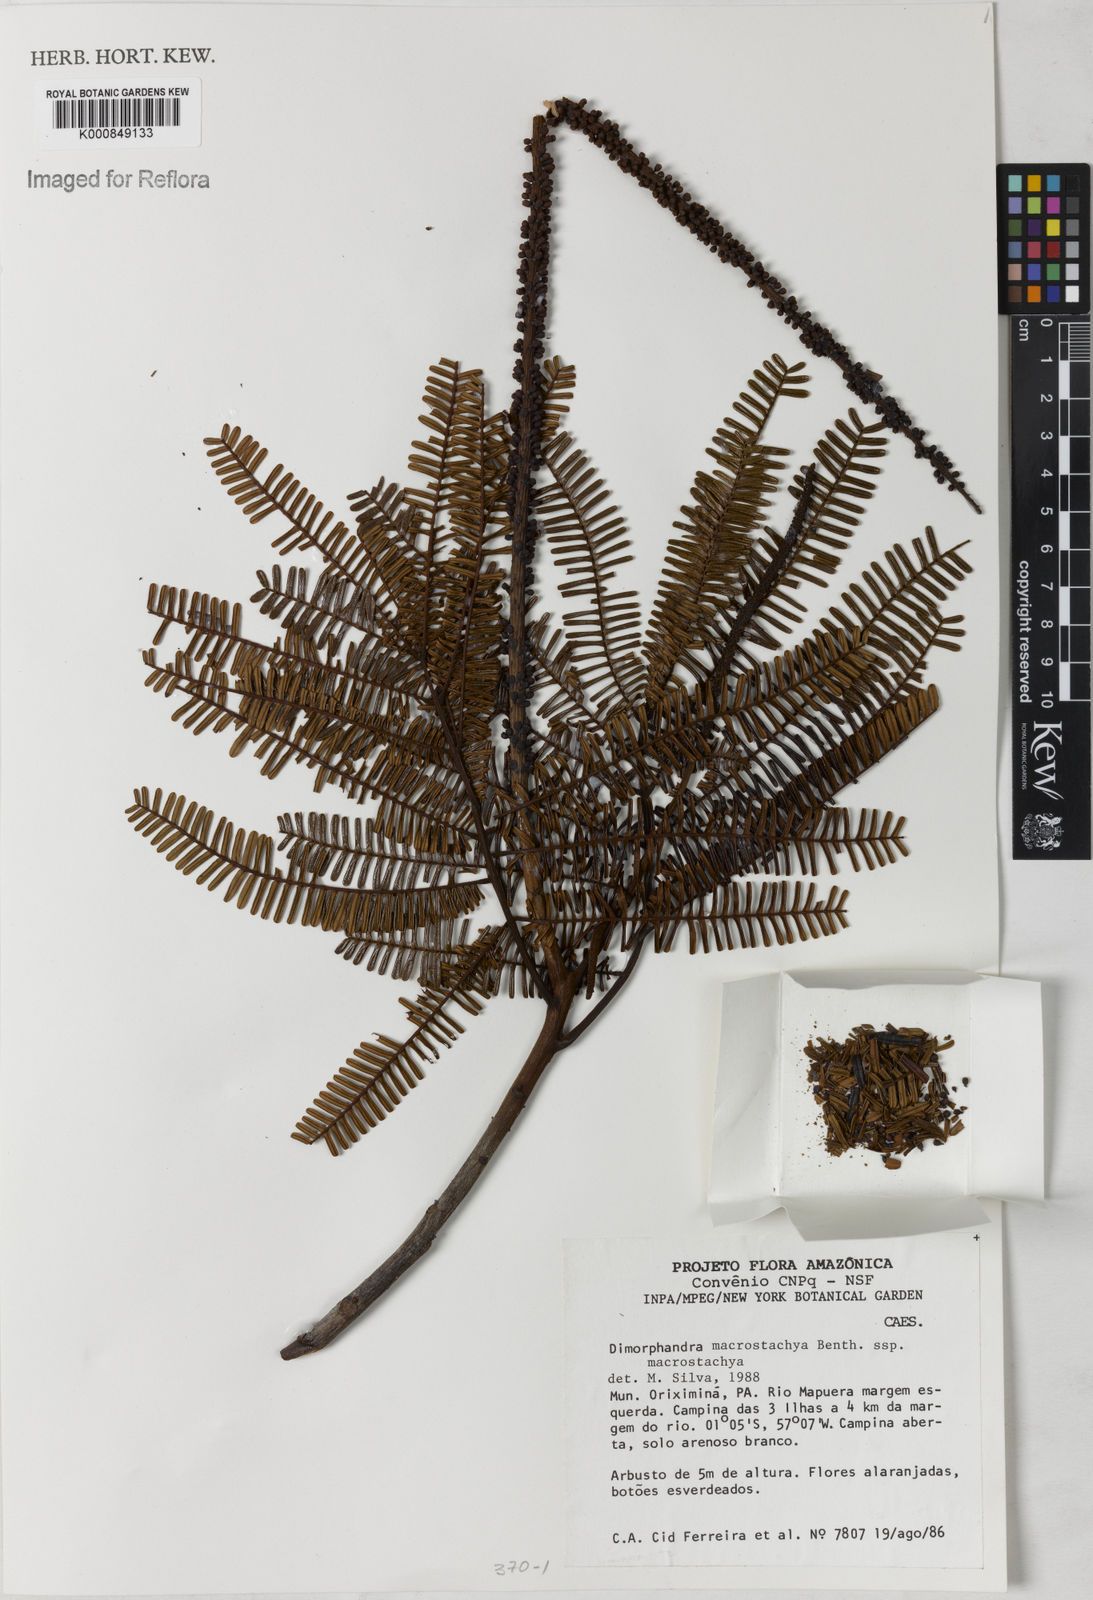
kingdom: Plantae
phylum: Tracheophyta
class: Magnoliopsida
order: Fabales
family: Fabaceae
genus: Dimorphandra
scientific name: Dimorphandra macrostachya
